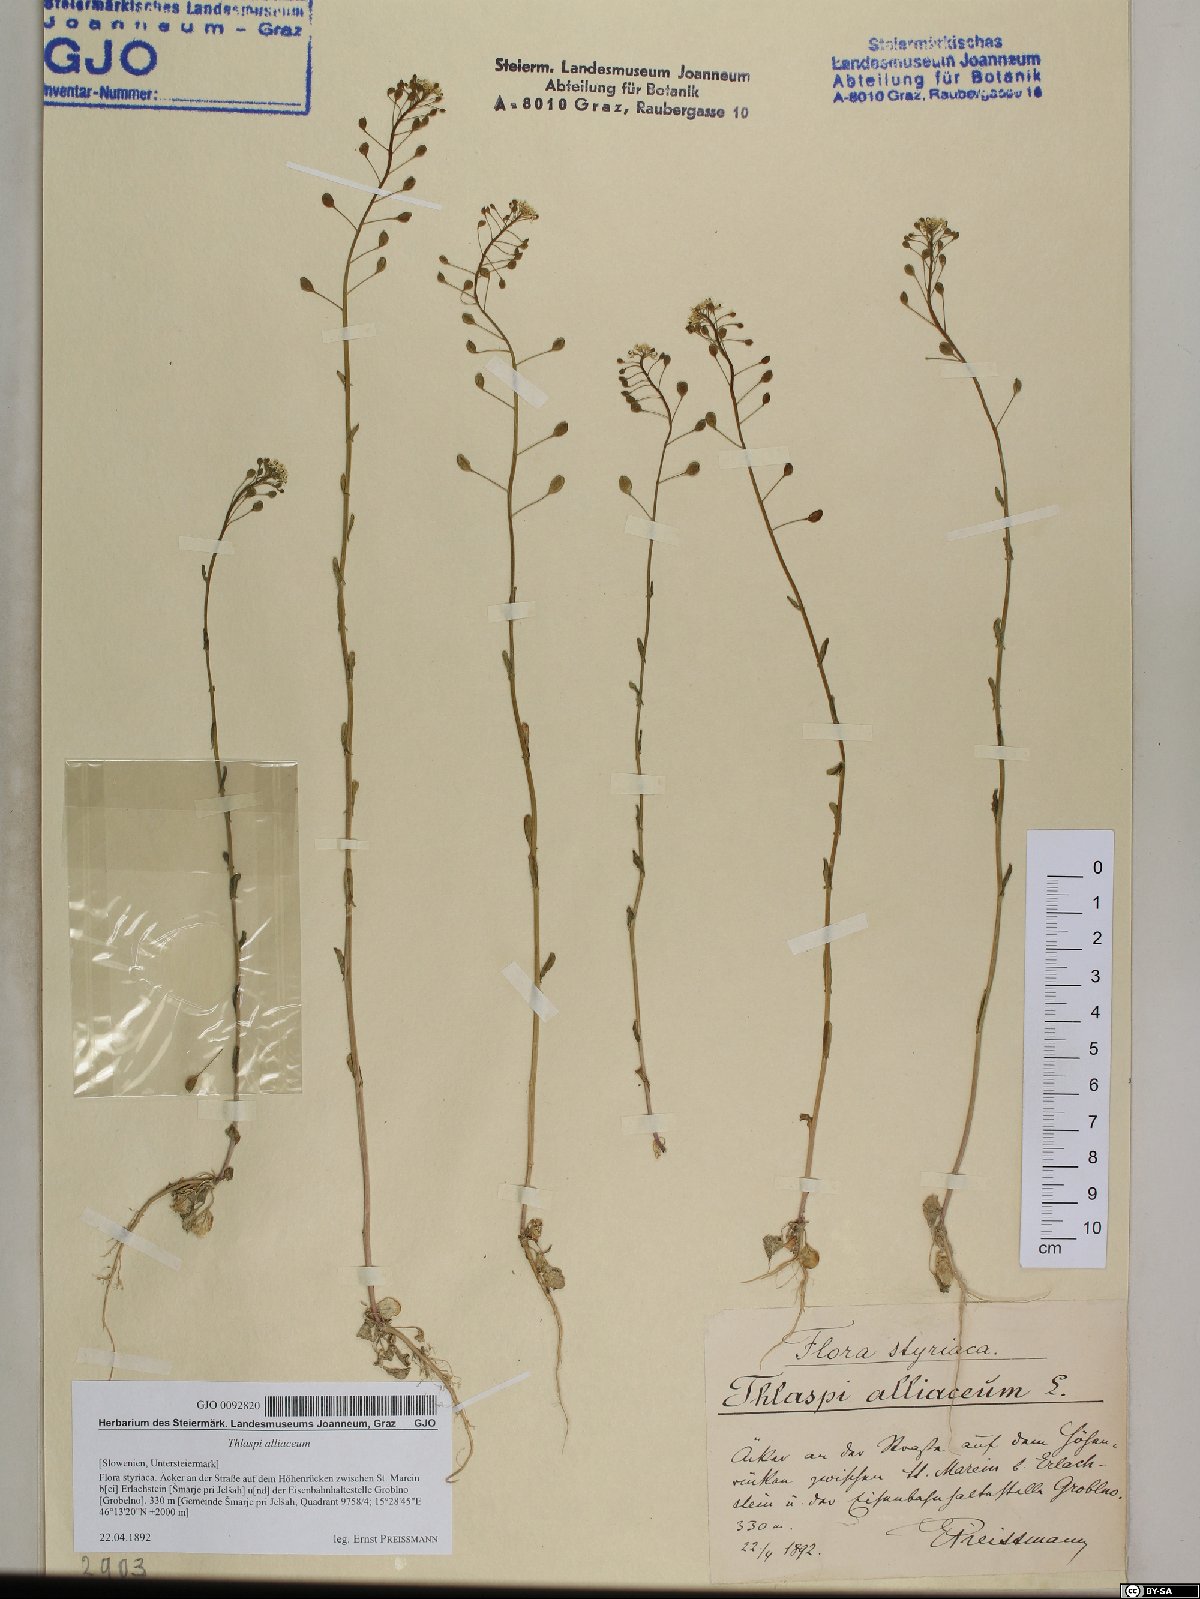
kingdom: Plantae
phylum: Tracheophyta
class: Magnoliopsida
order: Brassicales
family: Brassicaceae
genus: Mummenhoffia
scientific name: Mummenhoffia alliacea
